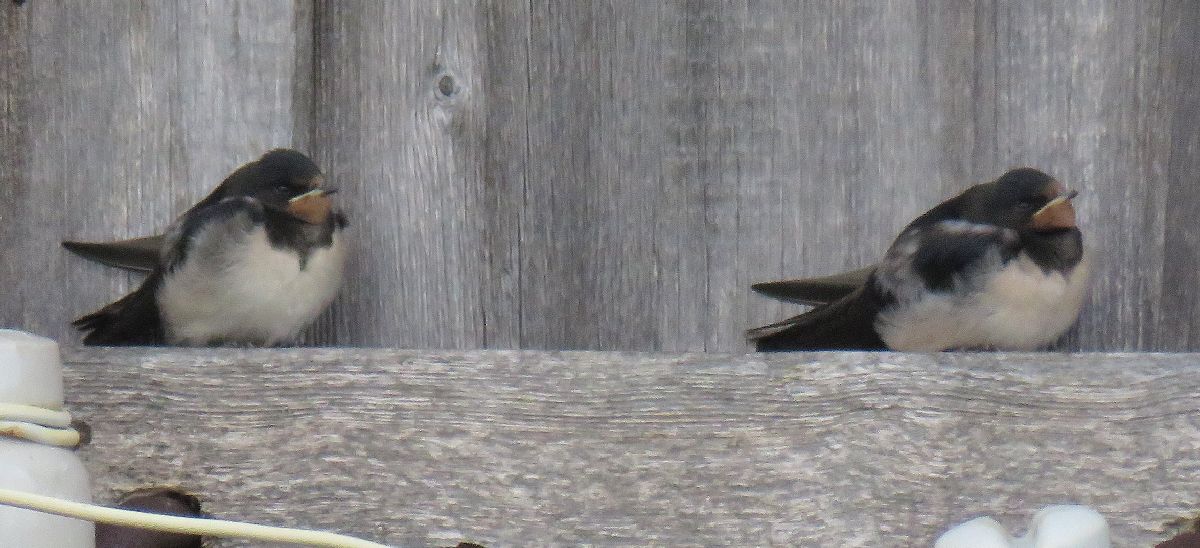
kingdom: Animalia
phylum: Chordata
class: Aves
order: Passeriformes
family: Hirundinidae
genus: Hirundo
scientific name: Hirundo rustica
